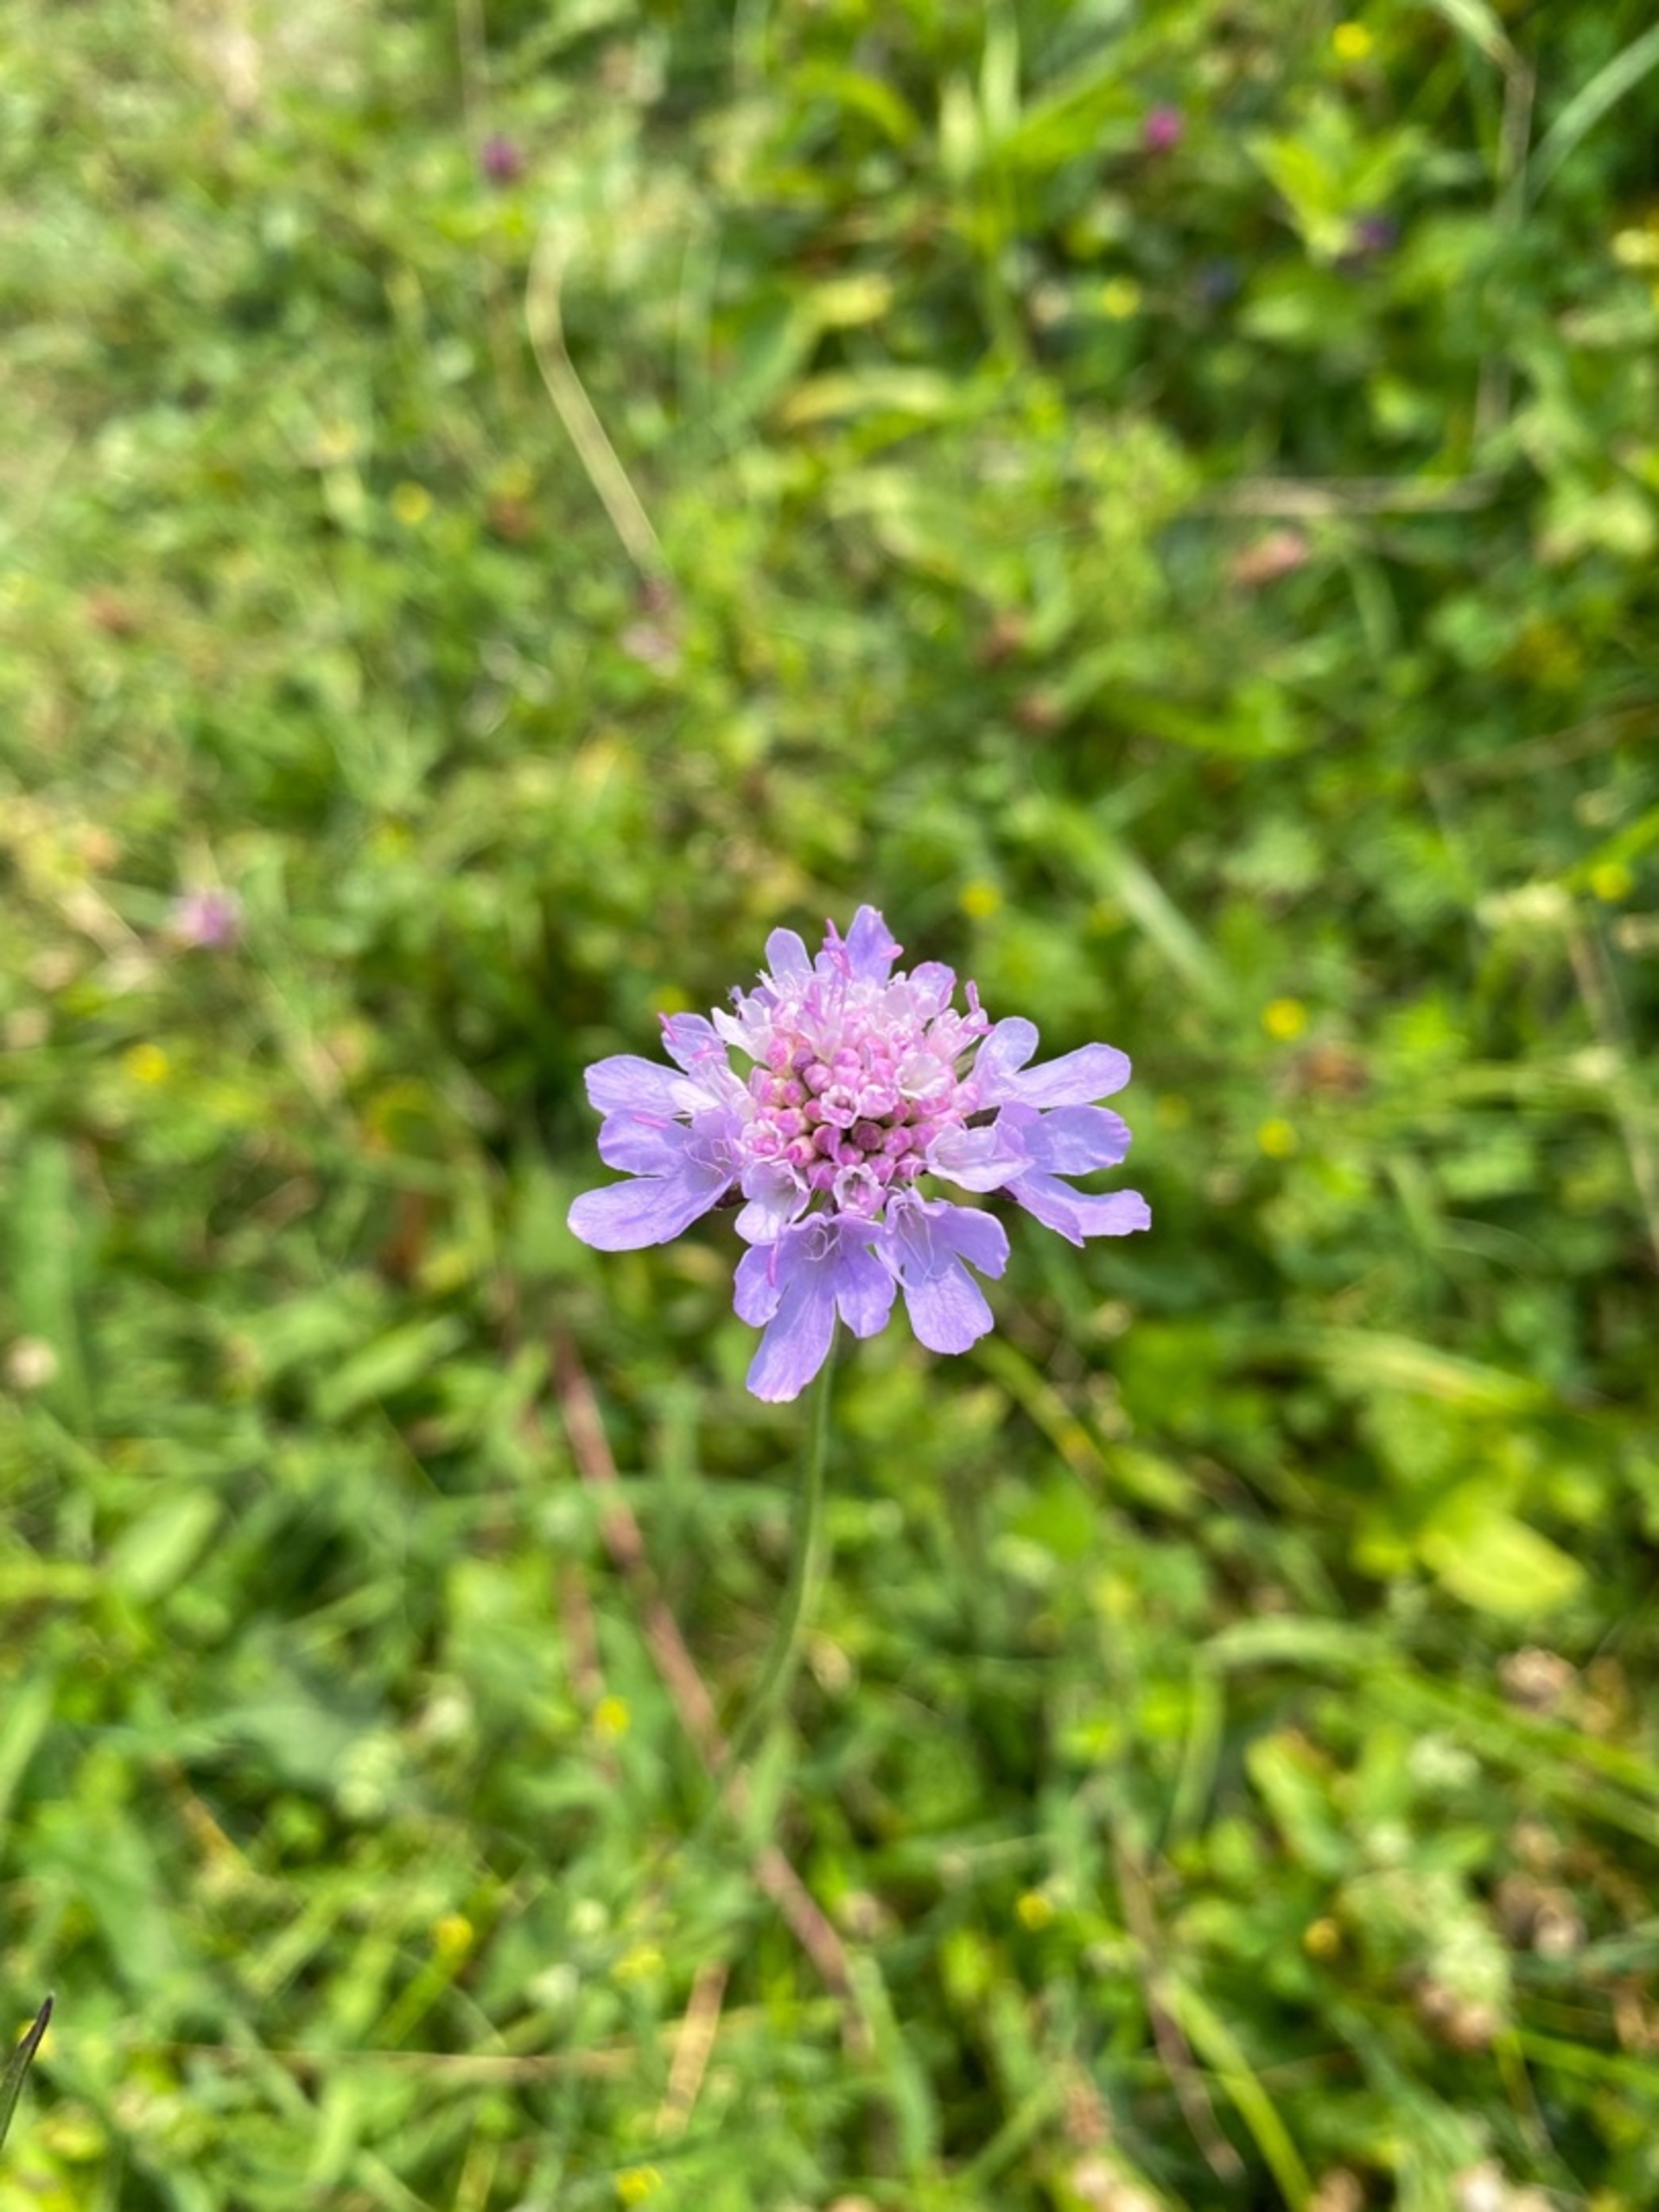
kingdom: Plantae
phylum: Tracheophyta
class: Magnoliopsida
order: Dipsacales
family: Caprifoliaceae
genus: Scabiosa
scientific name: Scabiosa columbaria
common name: Due-skabiose
